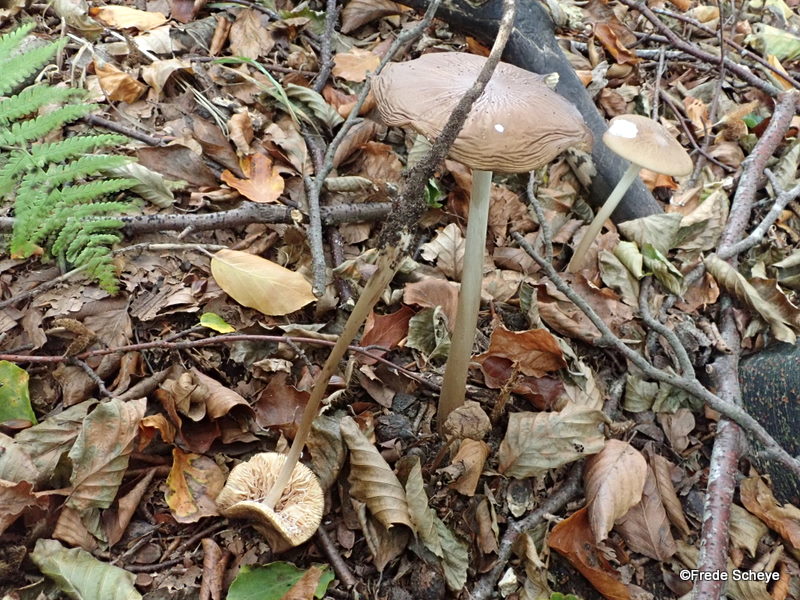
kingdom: Fungi
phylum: Basidiomycota
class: Agaricomycetes
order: Agaricales
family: Physalacriaceae
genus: Hymenopellis
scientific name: Hymenopellis radicata
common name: almindelig pælerodshat
